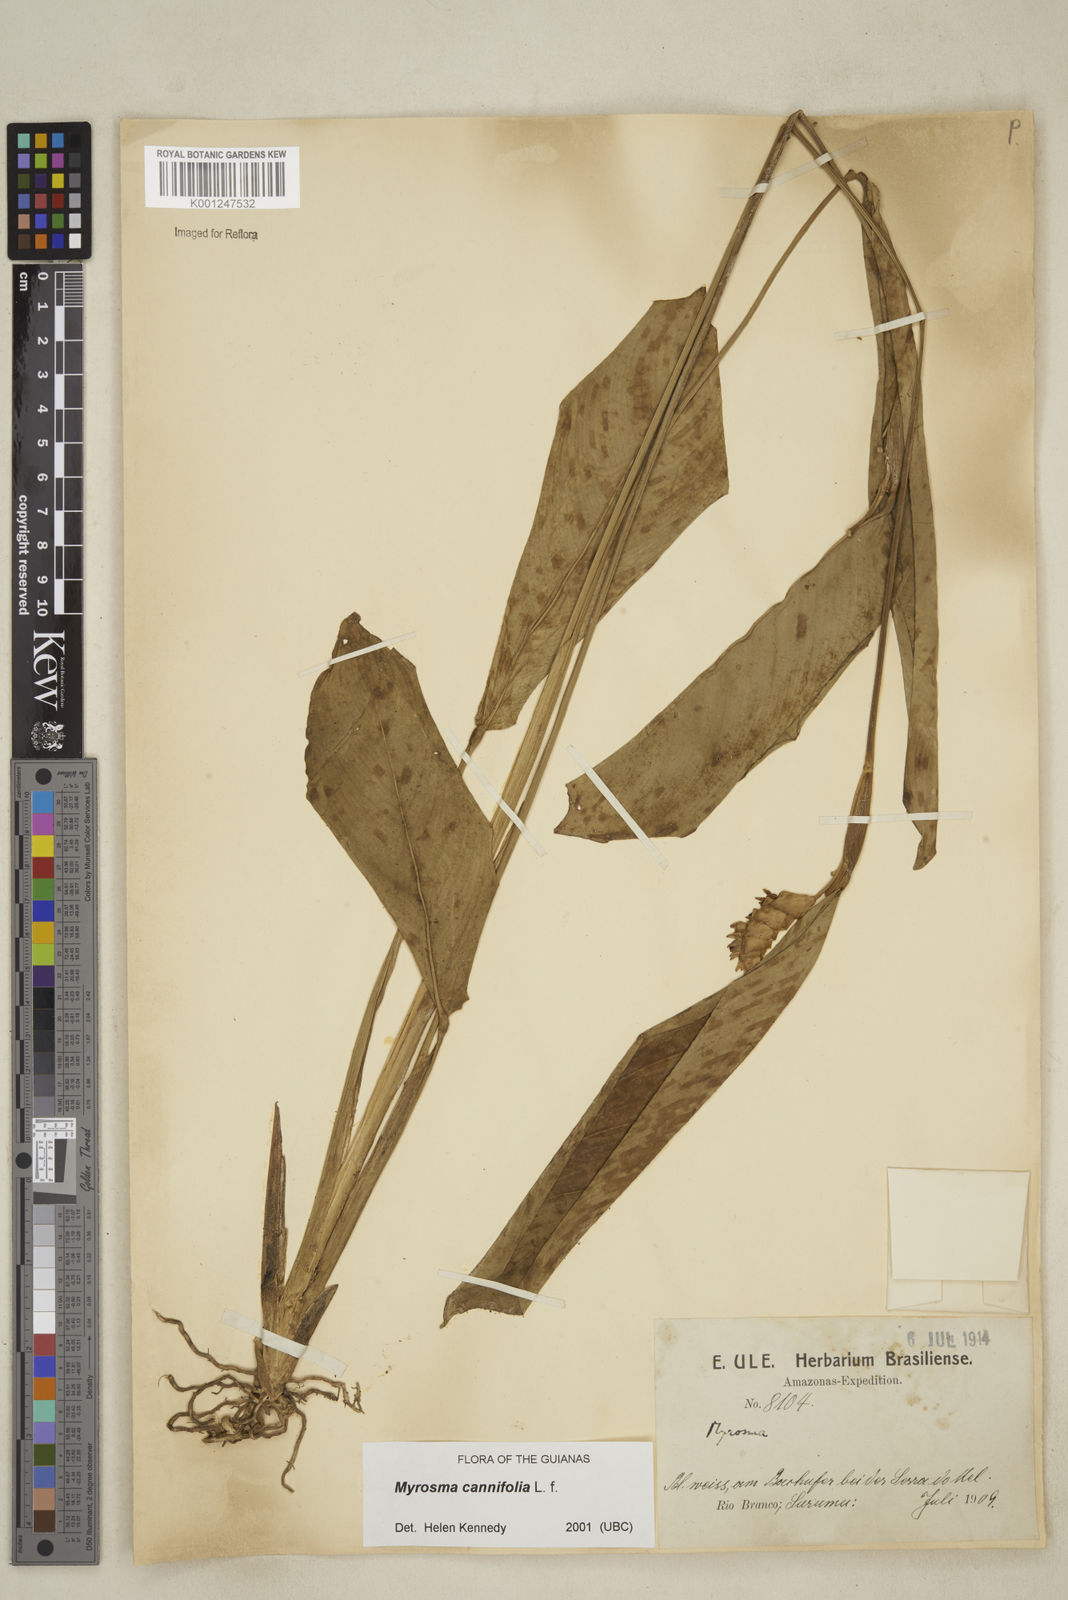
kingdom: Plantae
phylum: Tracheophyta
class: Liliopsida
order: Zingiberales
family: Marantaceae
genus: Myrosma
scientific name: Myrosma cannifolia
